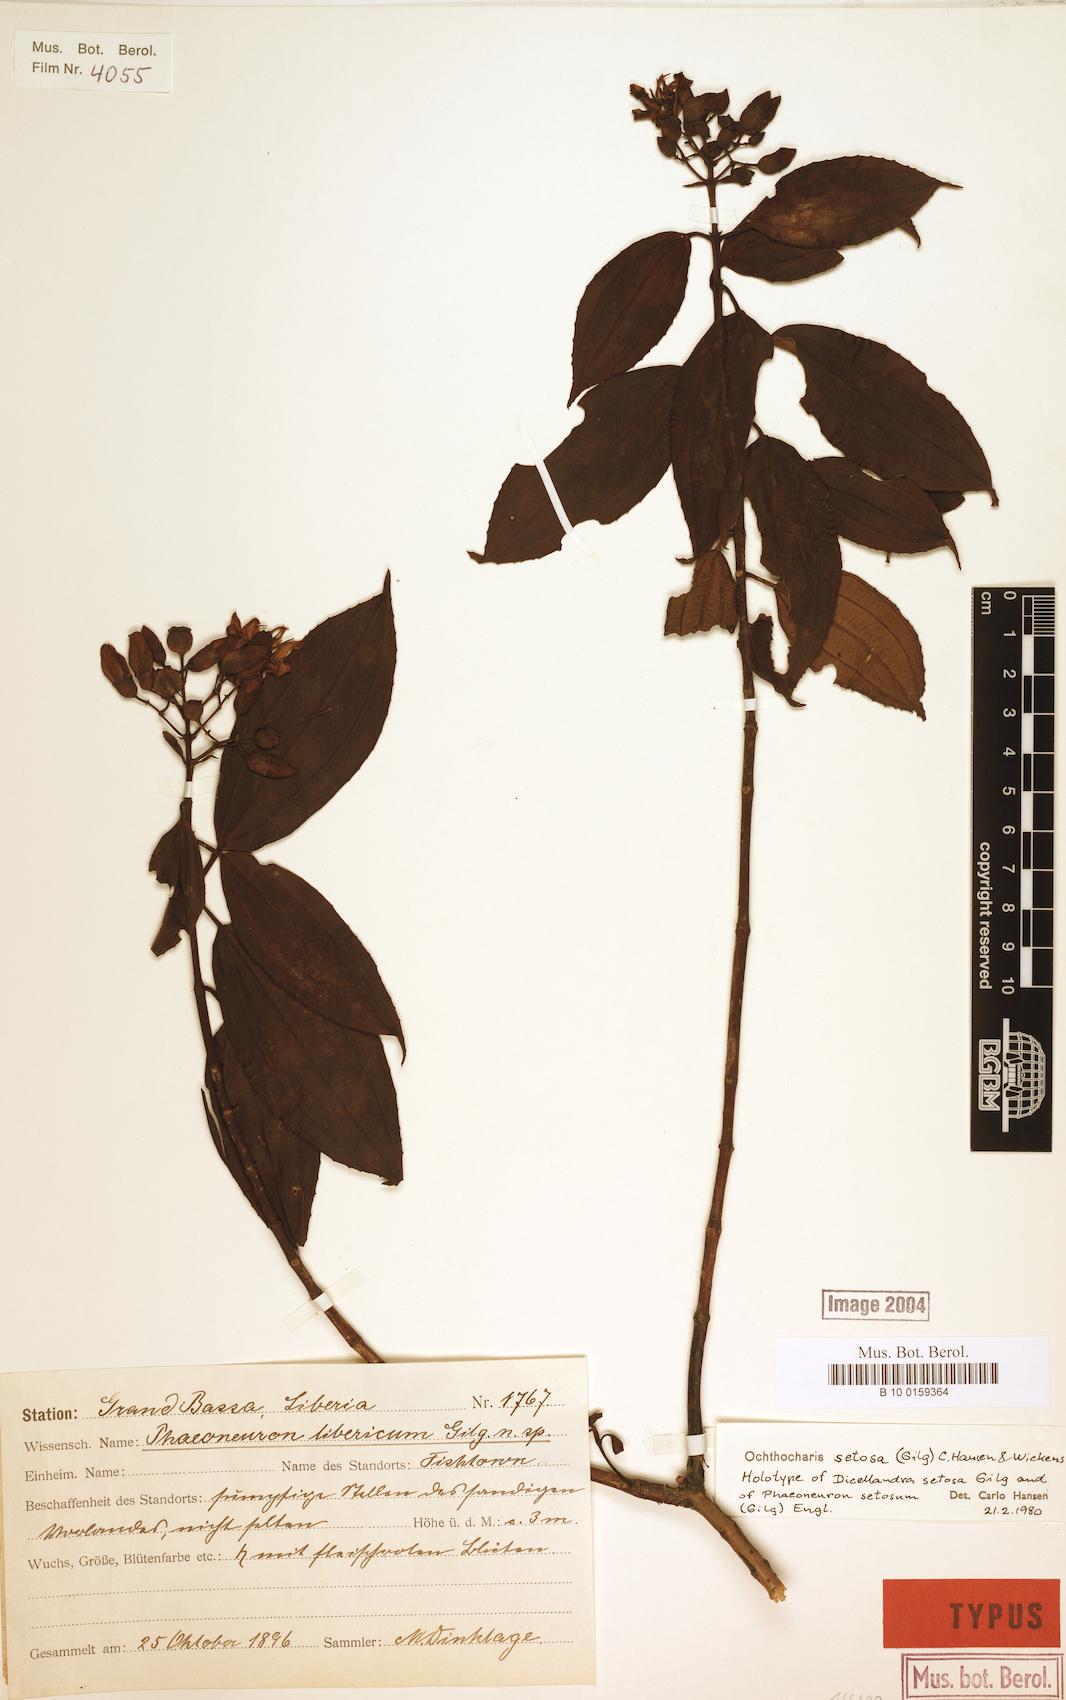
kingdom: Plantae
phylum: Tracheophyta
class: Magnoliopsida
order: Myrtales
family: Melastomataceae
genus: Ochthocharis
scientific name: Ochthocharis setosa
